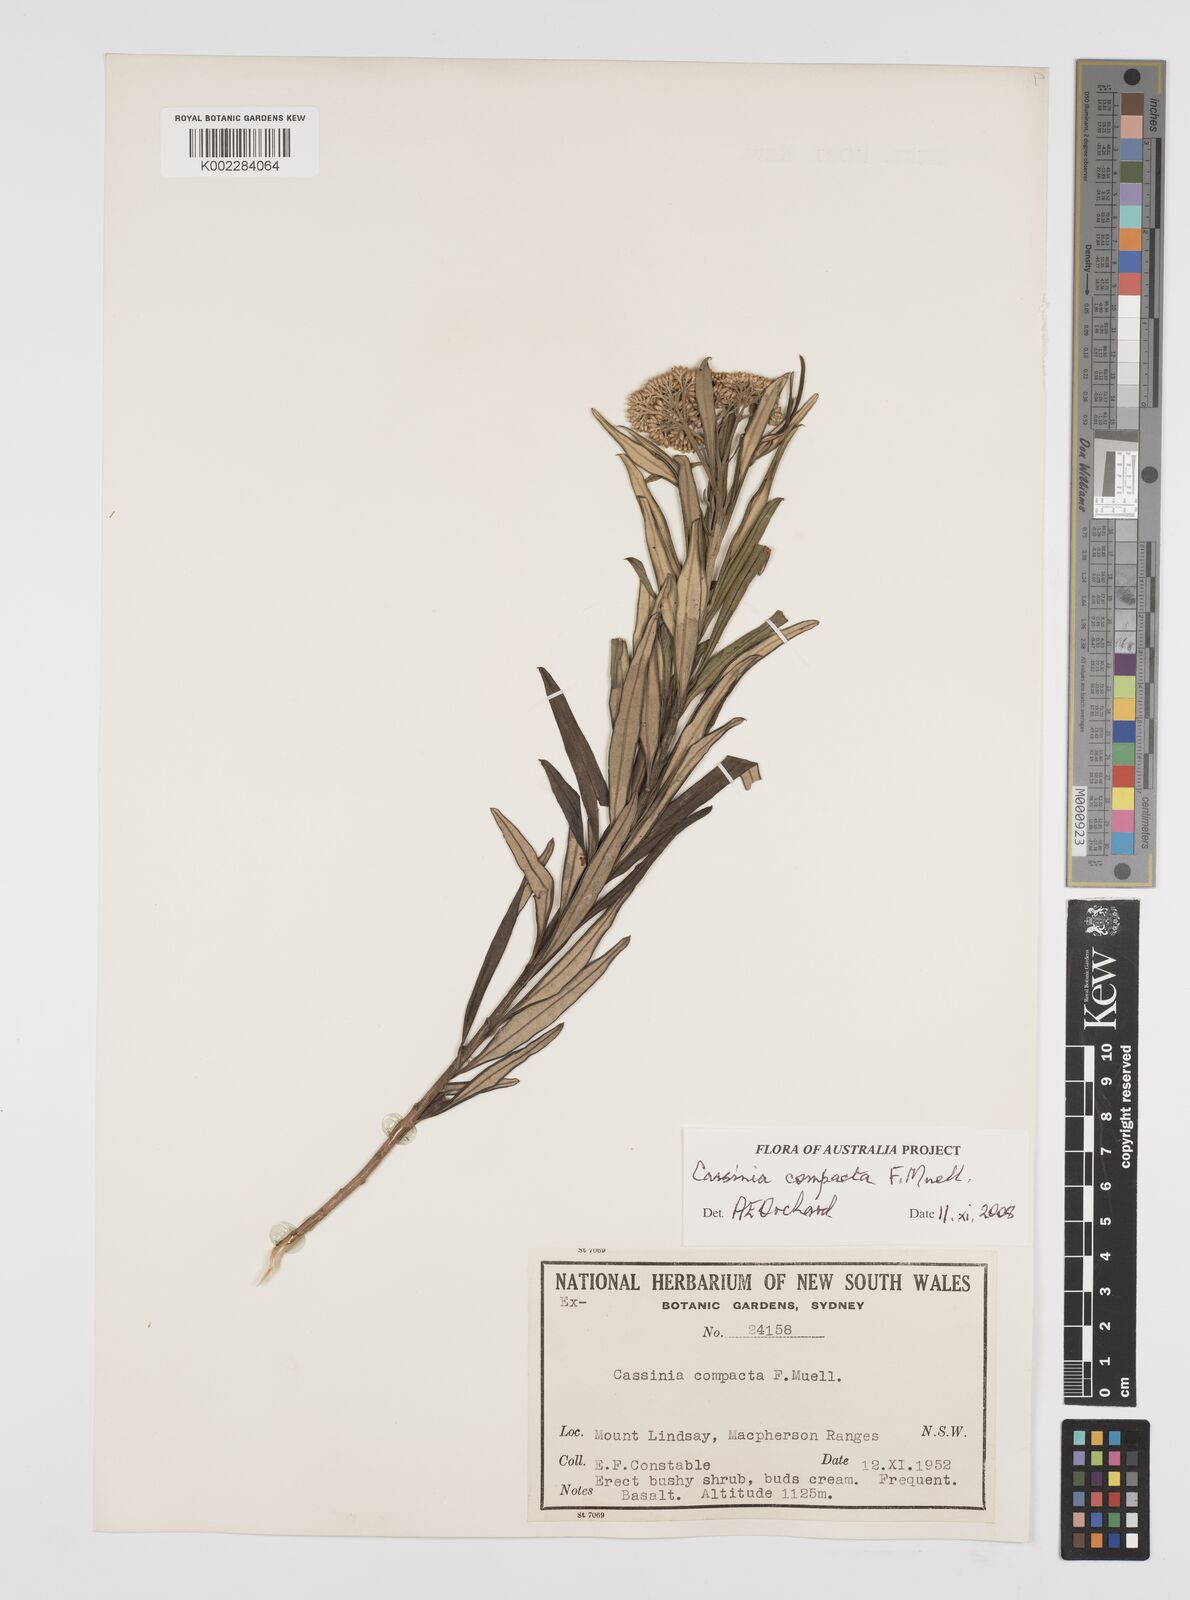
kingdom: Plantae
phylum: Tracheophyta
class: Magnoliopsida
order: Asterales
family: Asteraceae
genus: Cassinia
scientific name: Cassinia compacta
